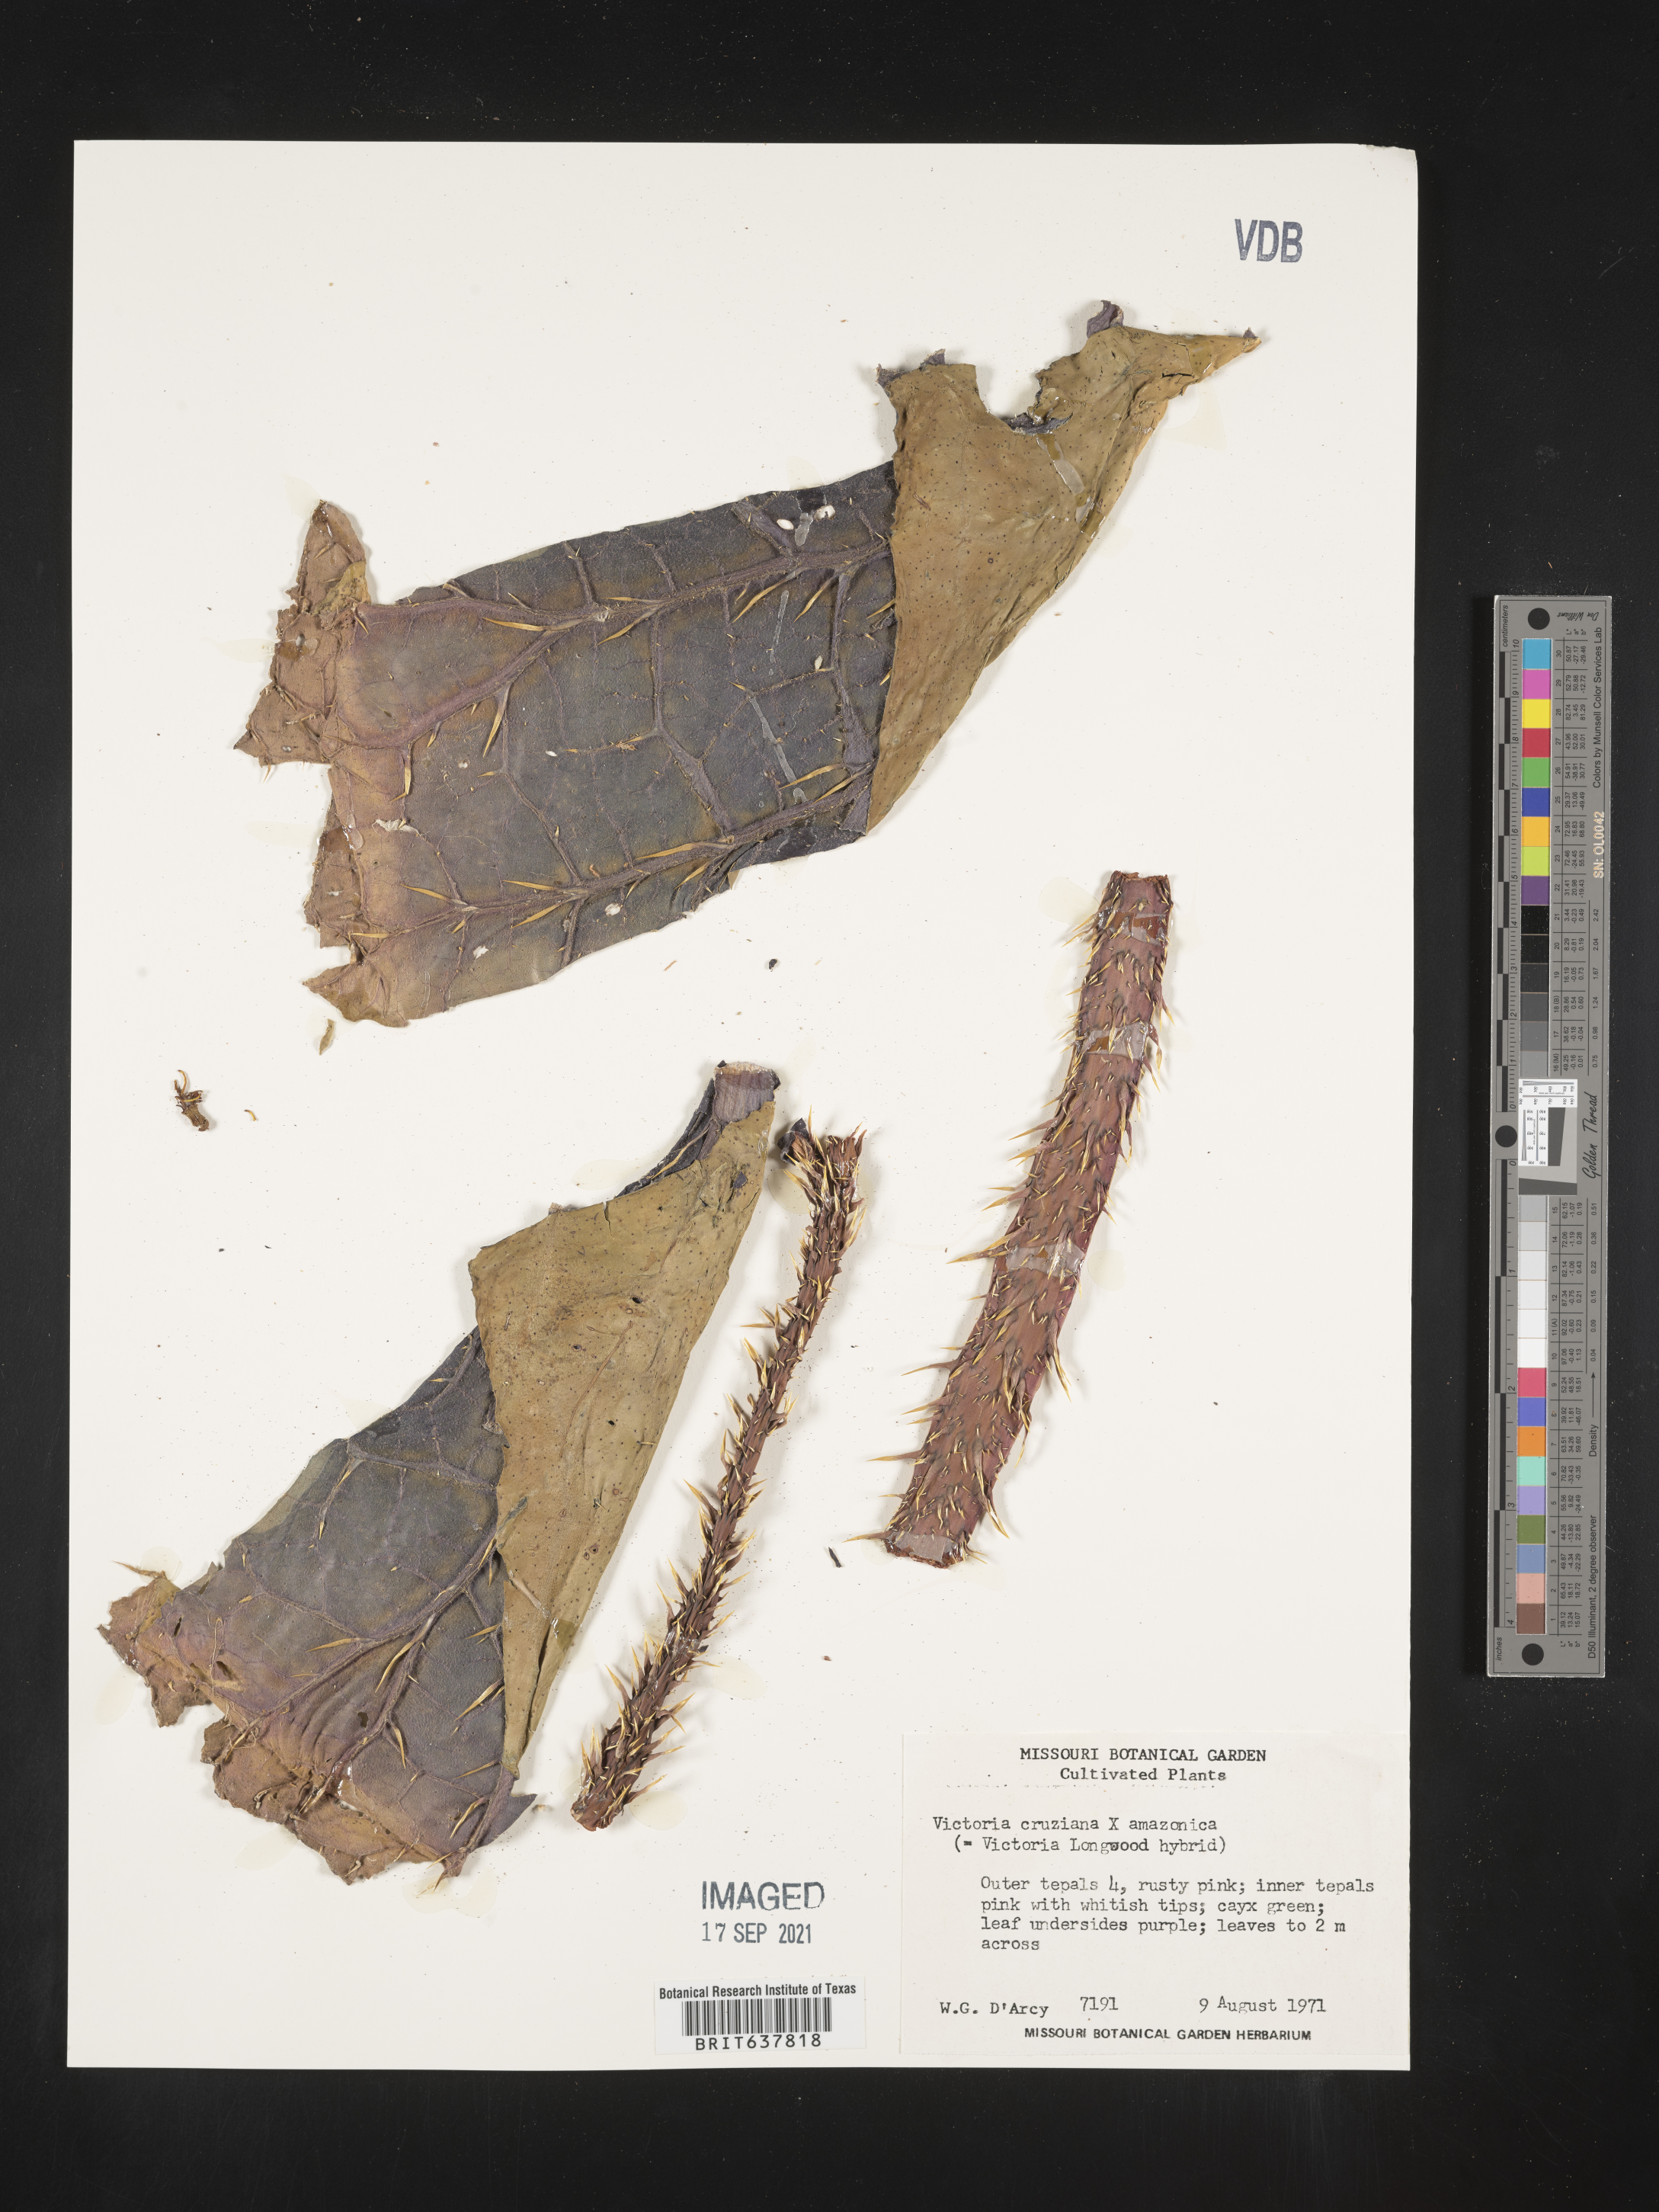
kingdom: Plantae
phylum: Tracheophyta
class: Magnoliopsida
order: Nymphaeales
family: Nymphaeaceae
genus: Victoria
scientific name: Victoria
